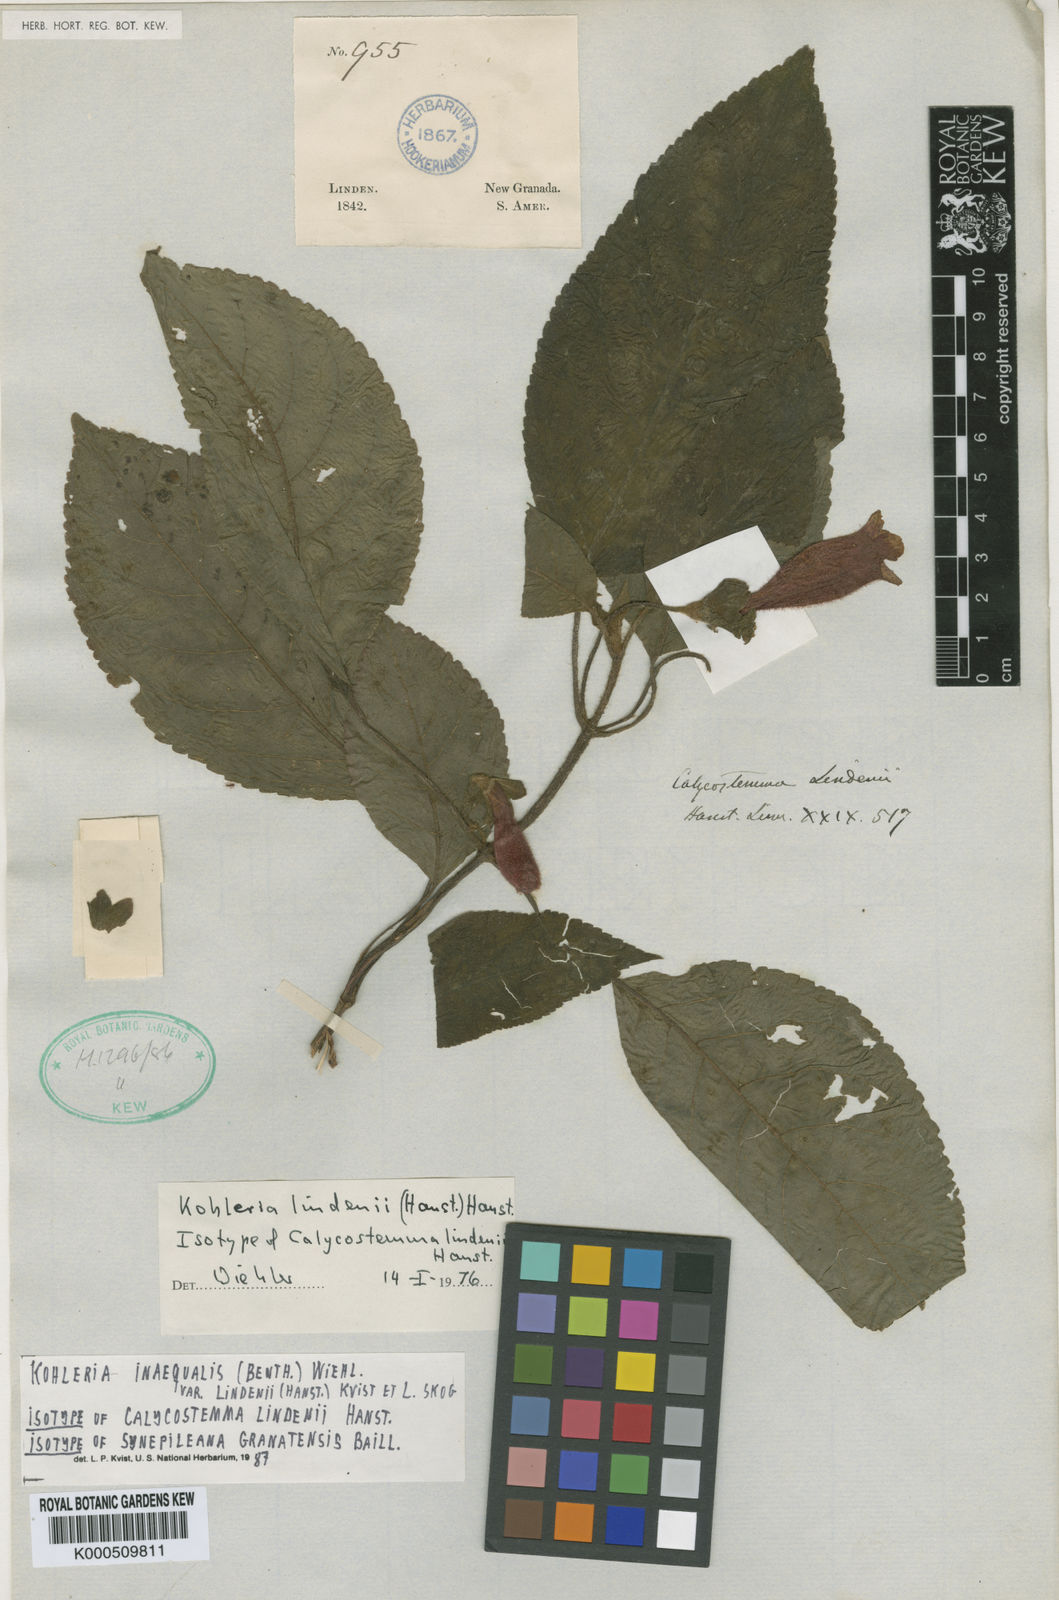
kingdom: Plantae
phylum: Tracheophyta
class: Magnoliopsida
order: Lamiales
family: Gesneriaceae
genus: Kohleria
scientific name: Kohleria inaequalis
